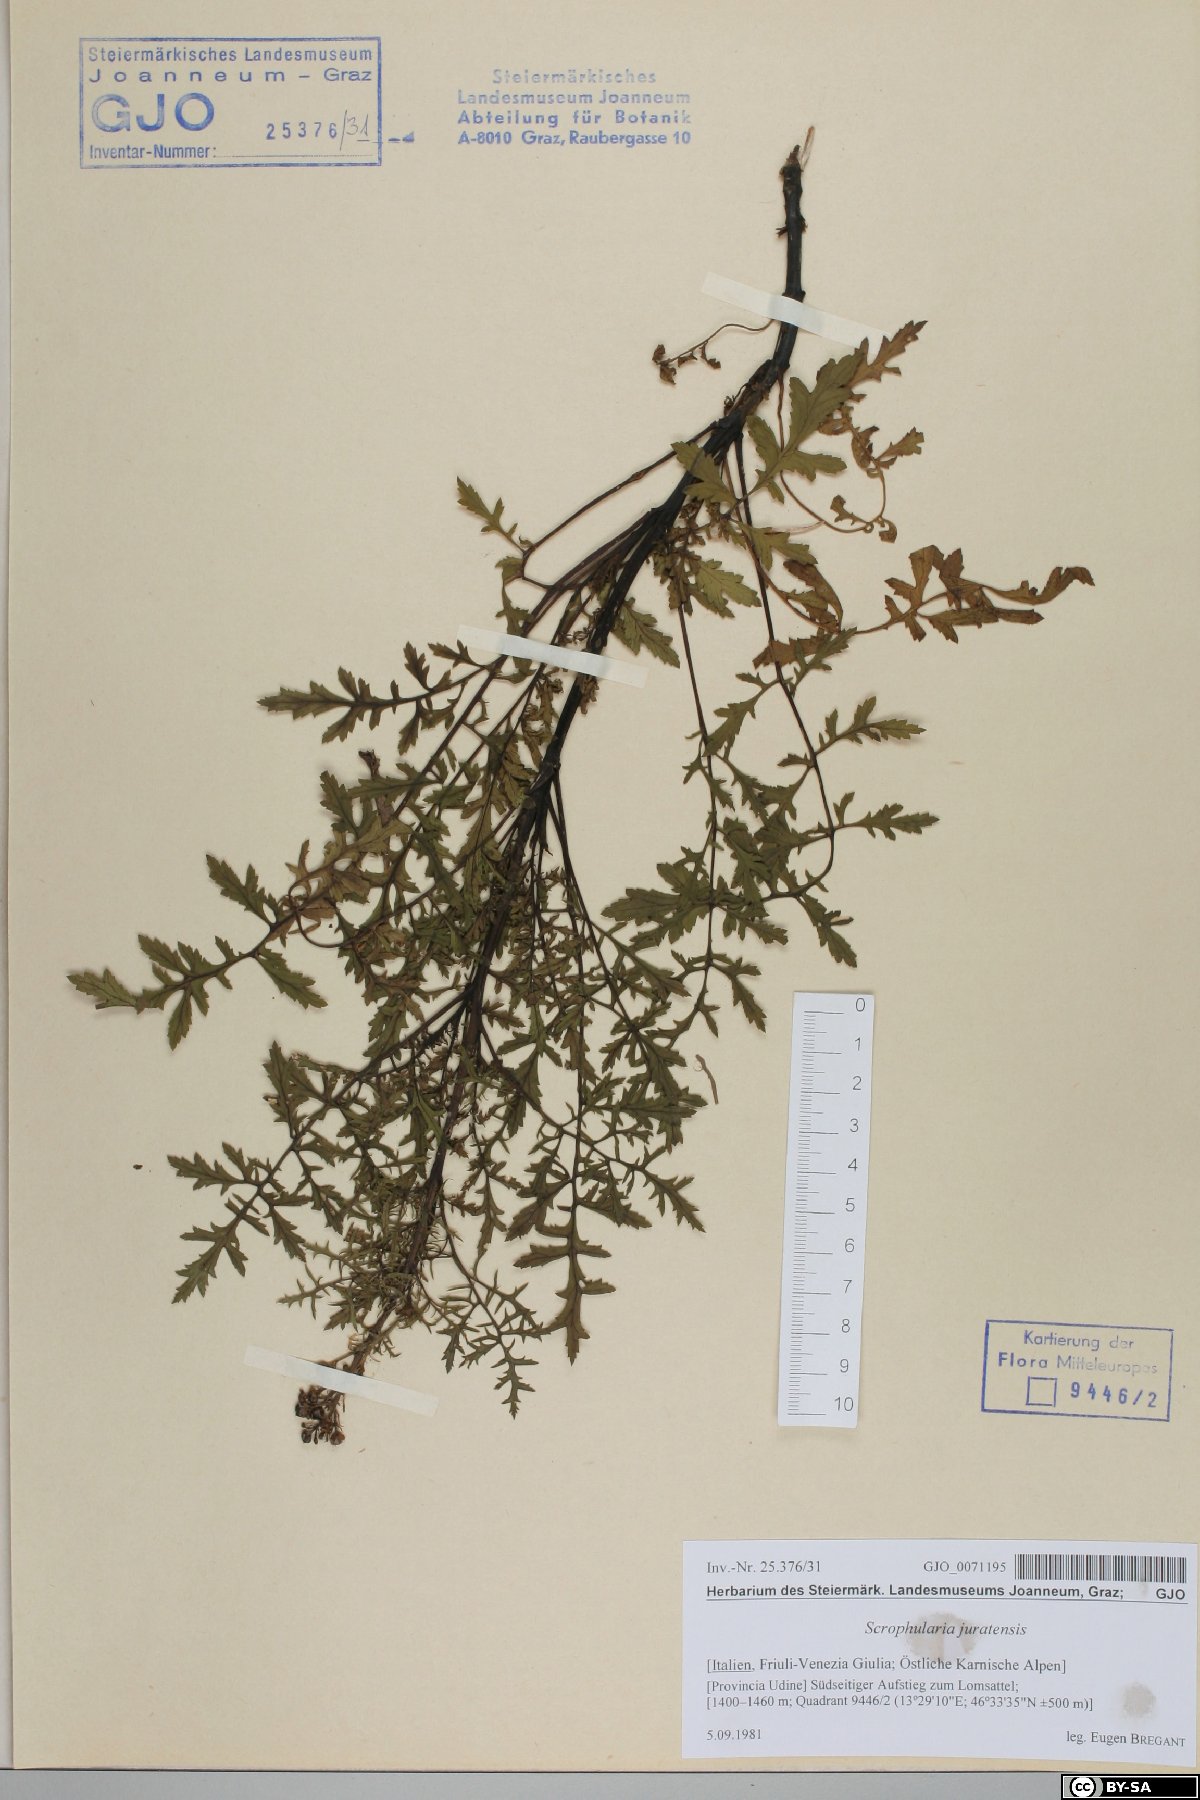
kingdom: Plantae
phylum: Tracheophyta
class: Magnoliopsida
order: Lamiales
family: Scrophulariaceae
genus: Scrophularia
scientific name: Scrophularia canina
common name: French figwort
